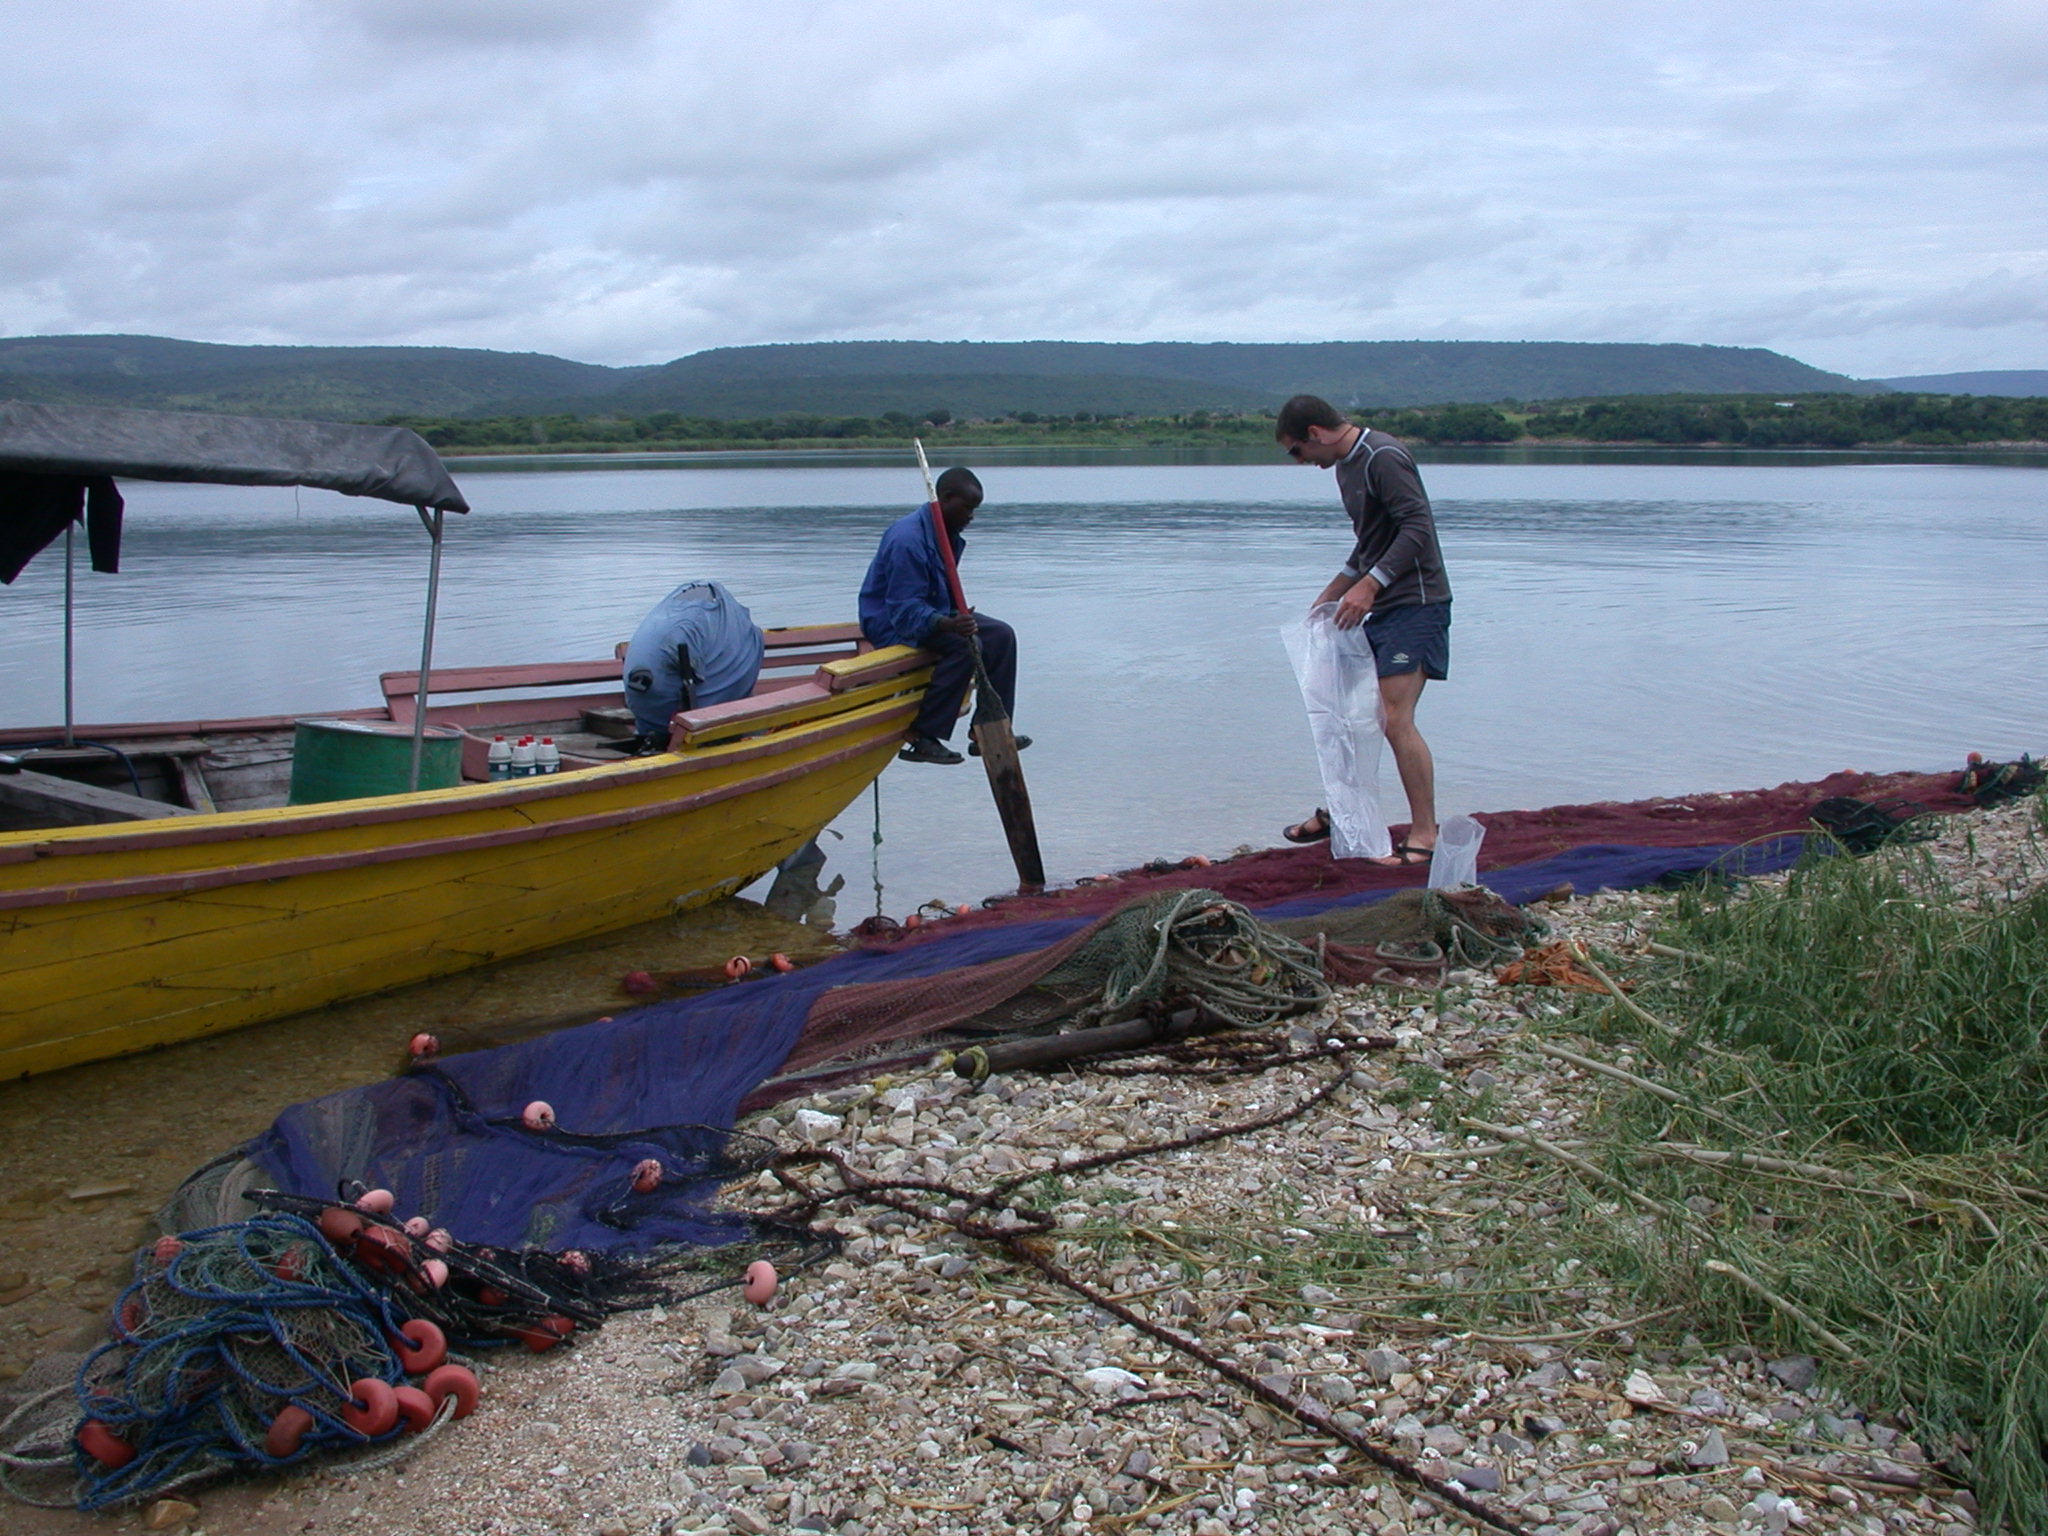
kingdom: Animalia
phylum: Chordata
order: Perciformes
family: Cichlidae
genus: Lobochilotes
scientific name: Lobochilotes labiatus
